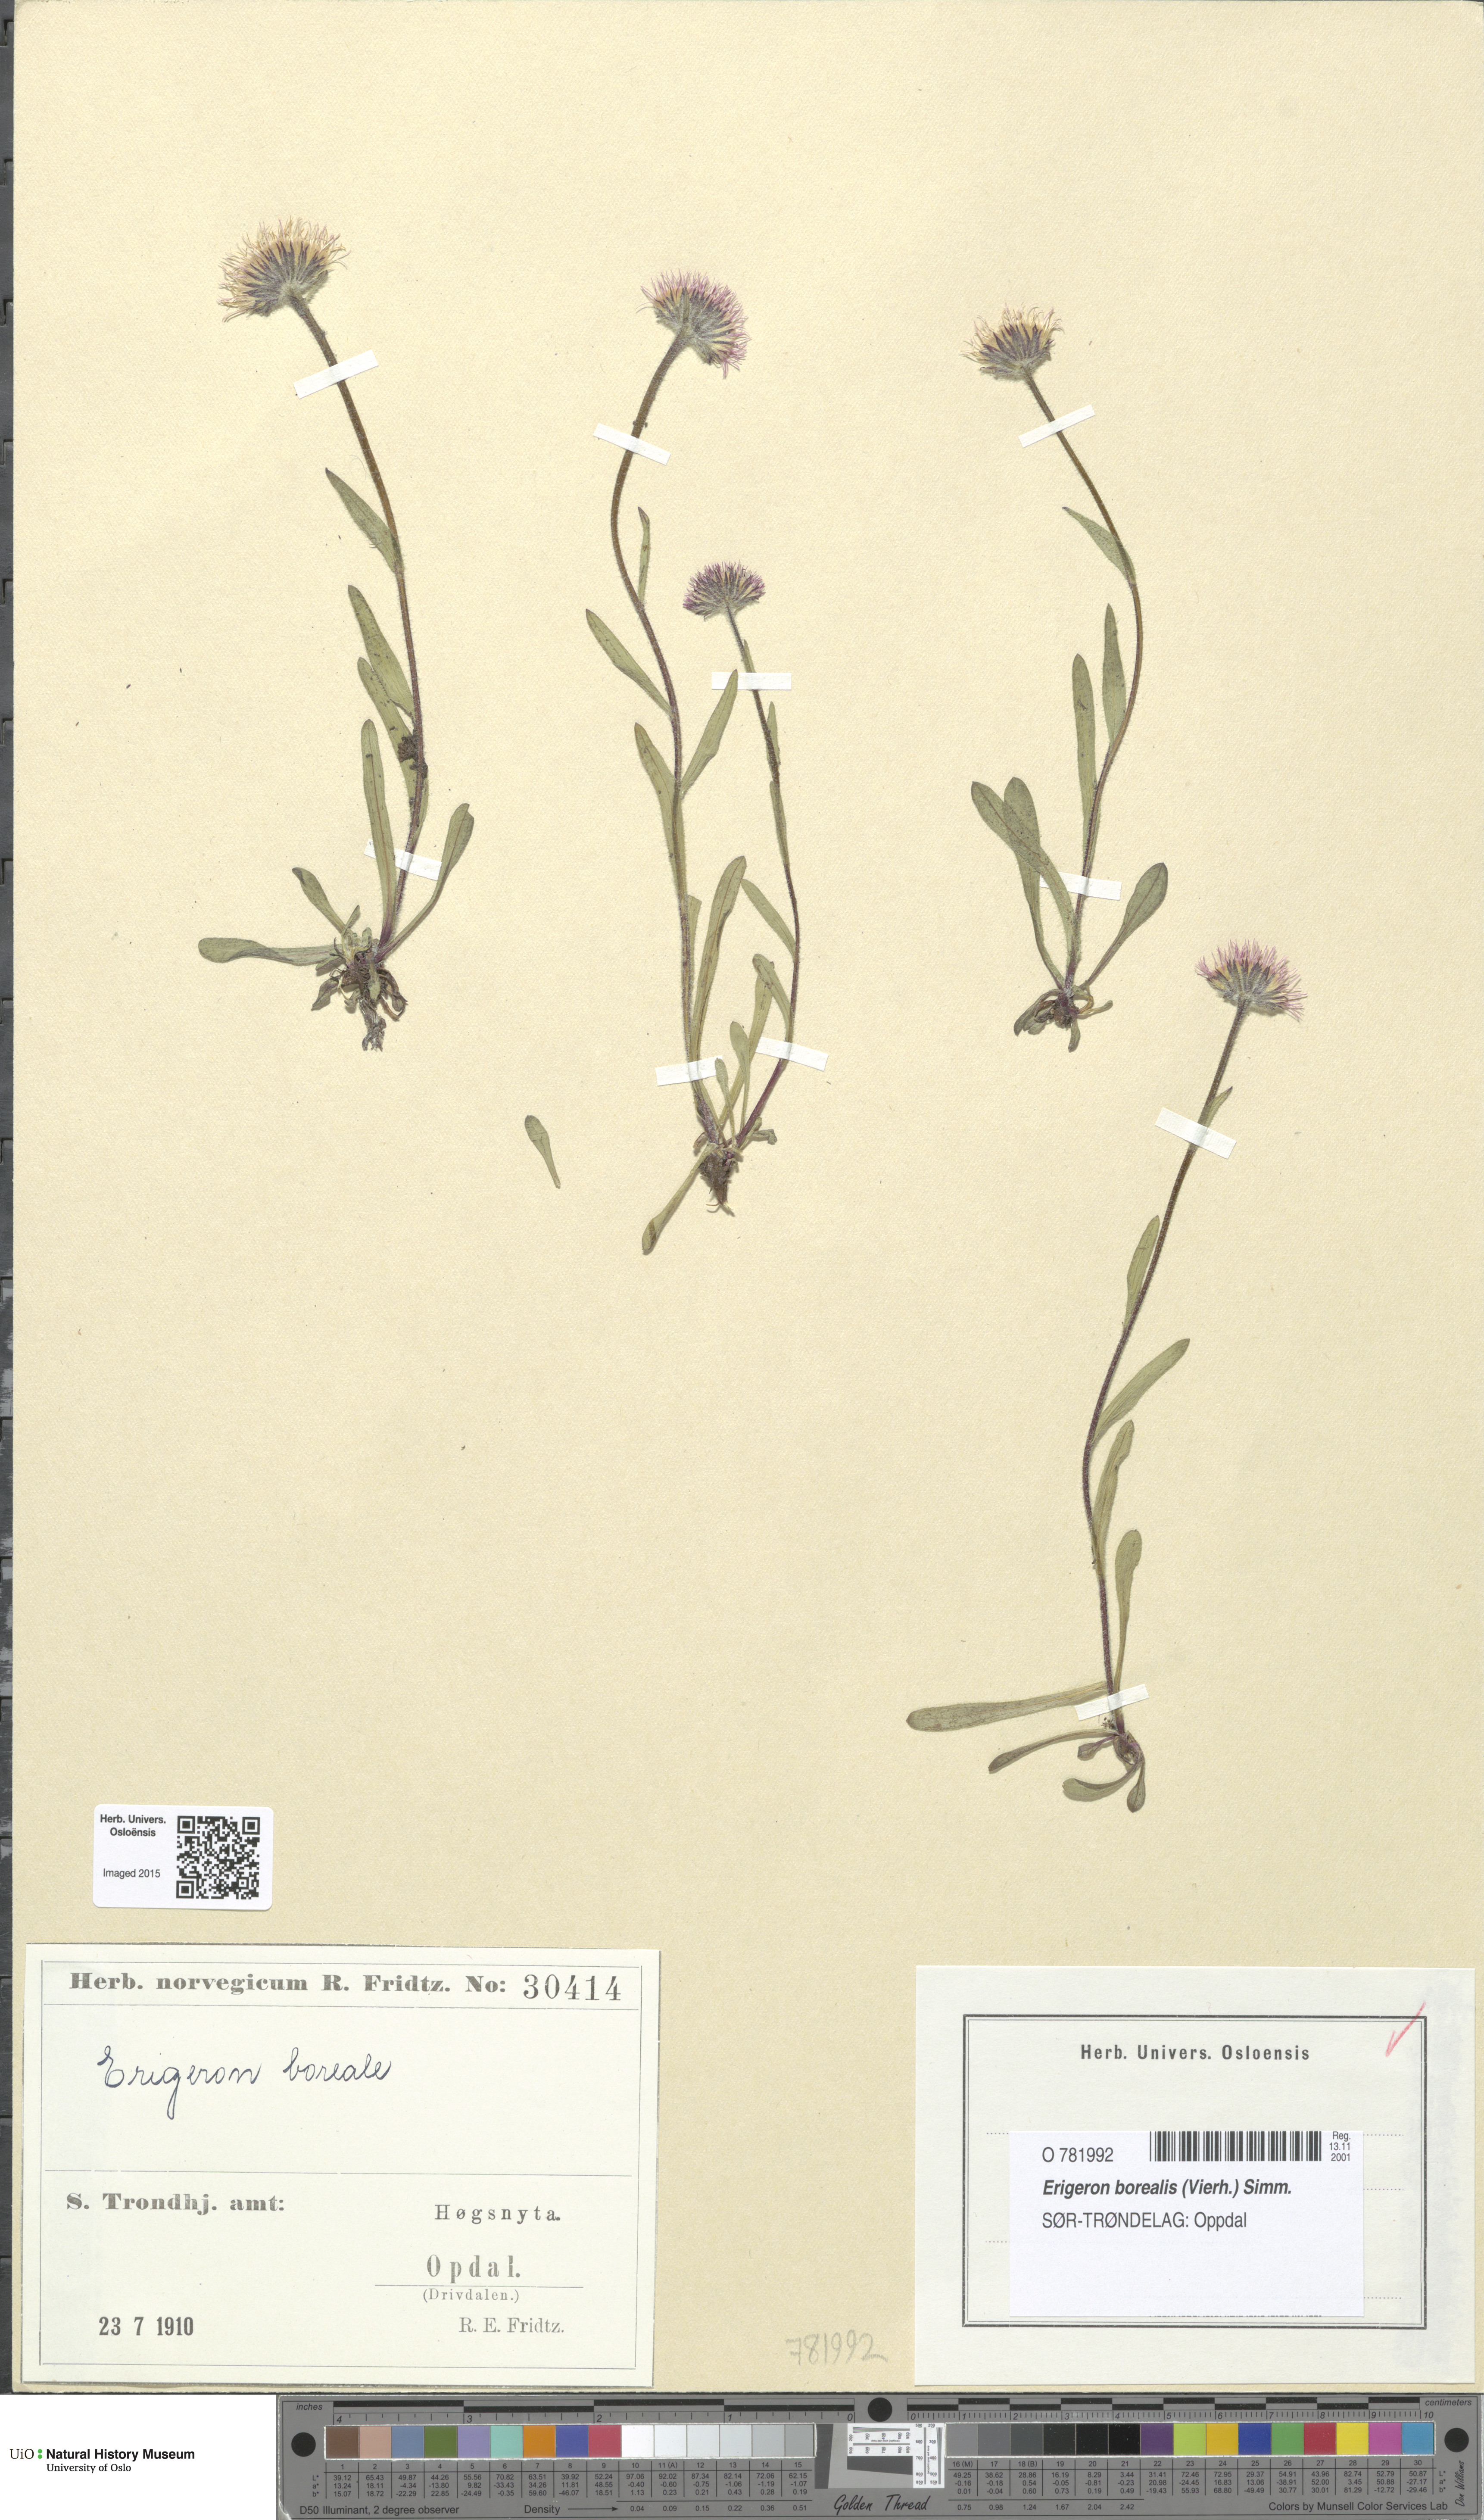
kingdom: Plantae
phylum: Tracheophyta
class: Magnoliopsida
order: Asterales
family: Asteraceae
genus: Erigeron
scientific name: Erigeron borealis
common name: Alpine fleabane
